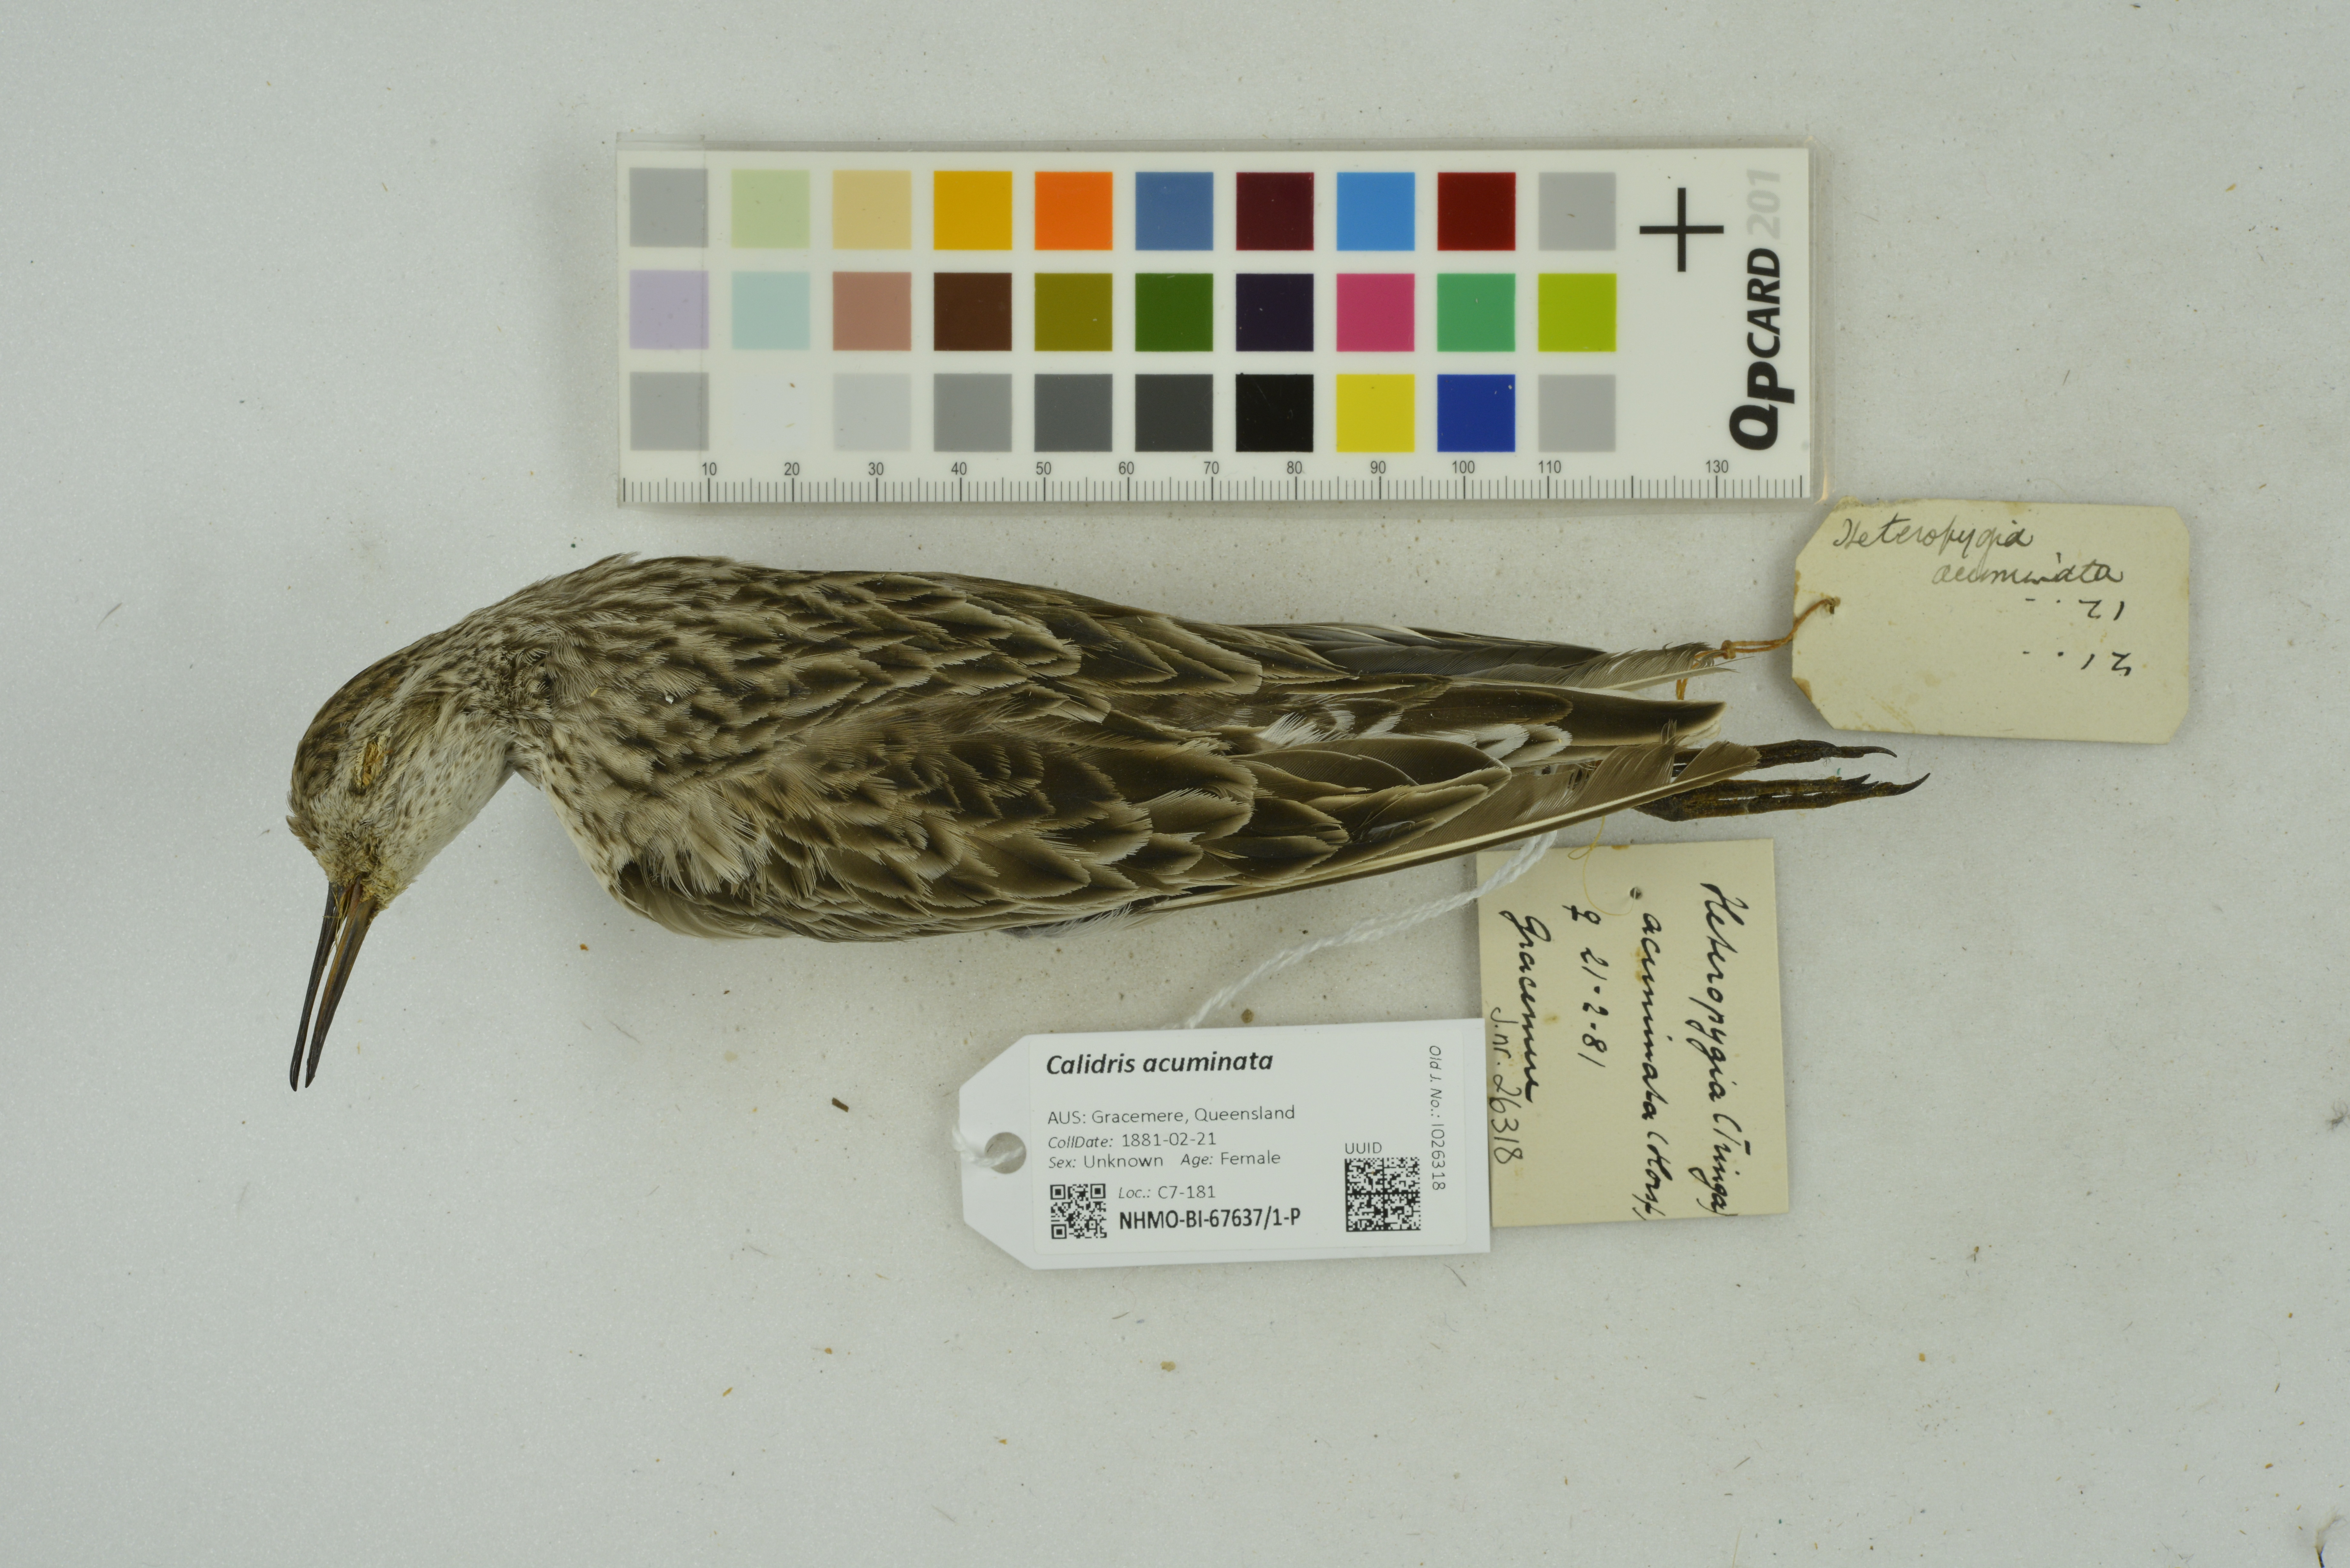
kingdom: Animalia
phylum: Chordata
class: Aves
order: Charadriiformes
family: Scolopacidae
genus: Calidris
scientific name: Calidris acuminata
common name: Sharp-tailed sandpiper
